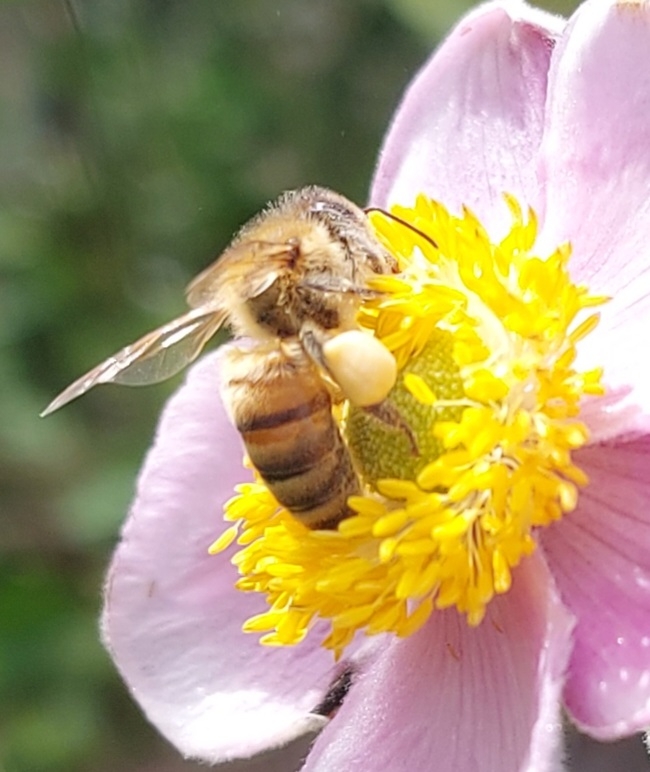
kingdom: Animalia
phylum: Arthropoda
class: Insecta
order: Hymenoptera
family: Apidae
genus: Apis
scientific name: Apis mellifera
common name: Honningbi
